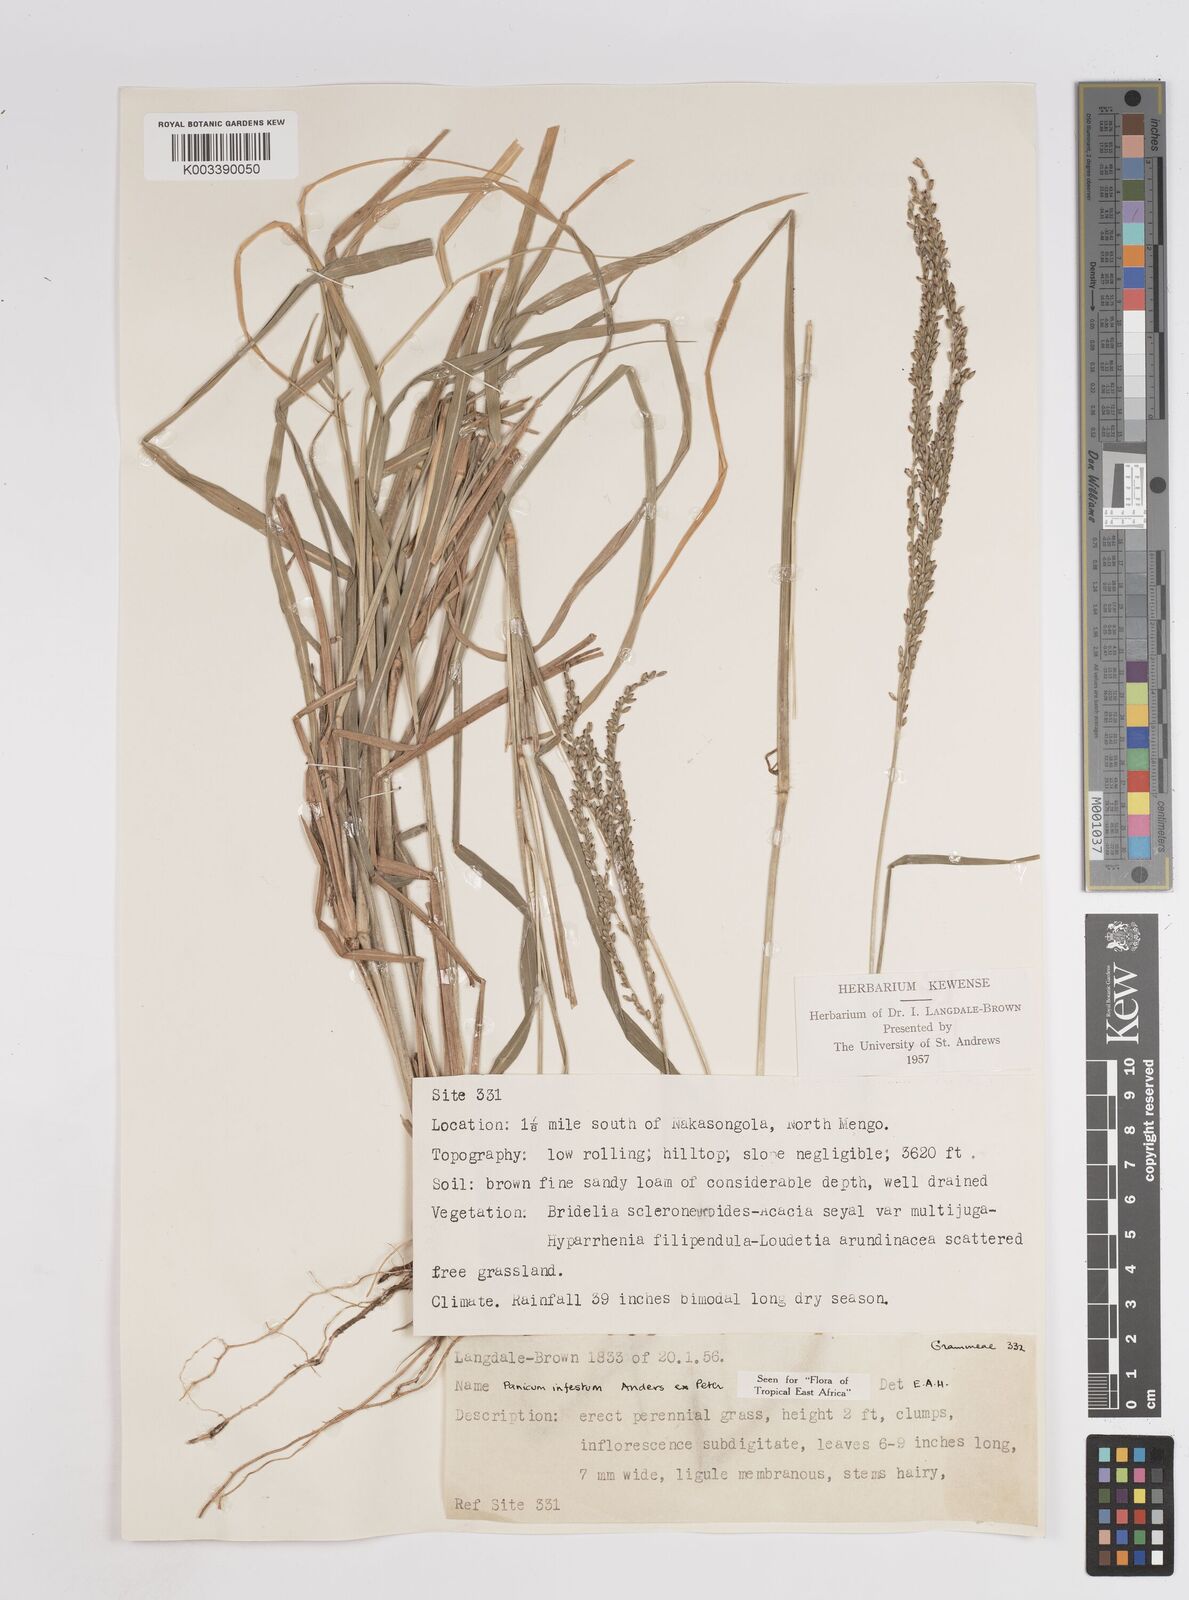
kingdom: Plantae
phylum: Tracheophyta
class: Liliopsida
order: Poales
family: Poaceae
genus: Megathyrsus
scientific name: Megathyrsus infestus
